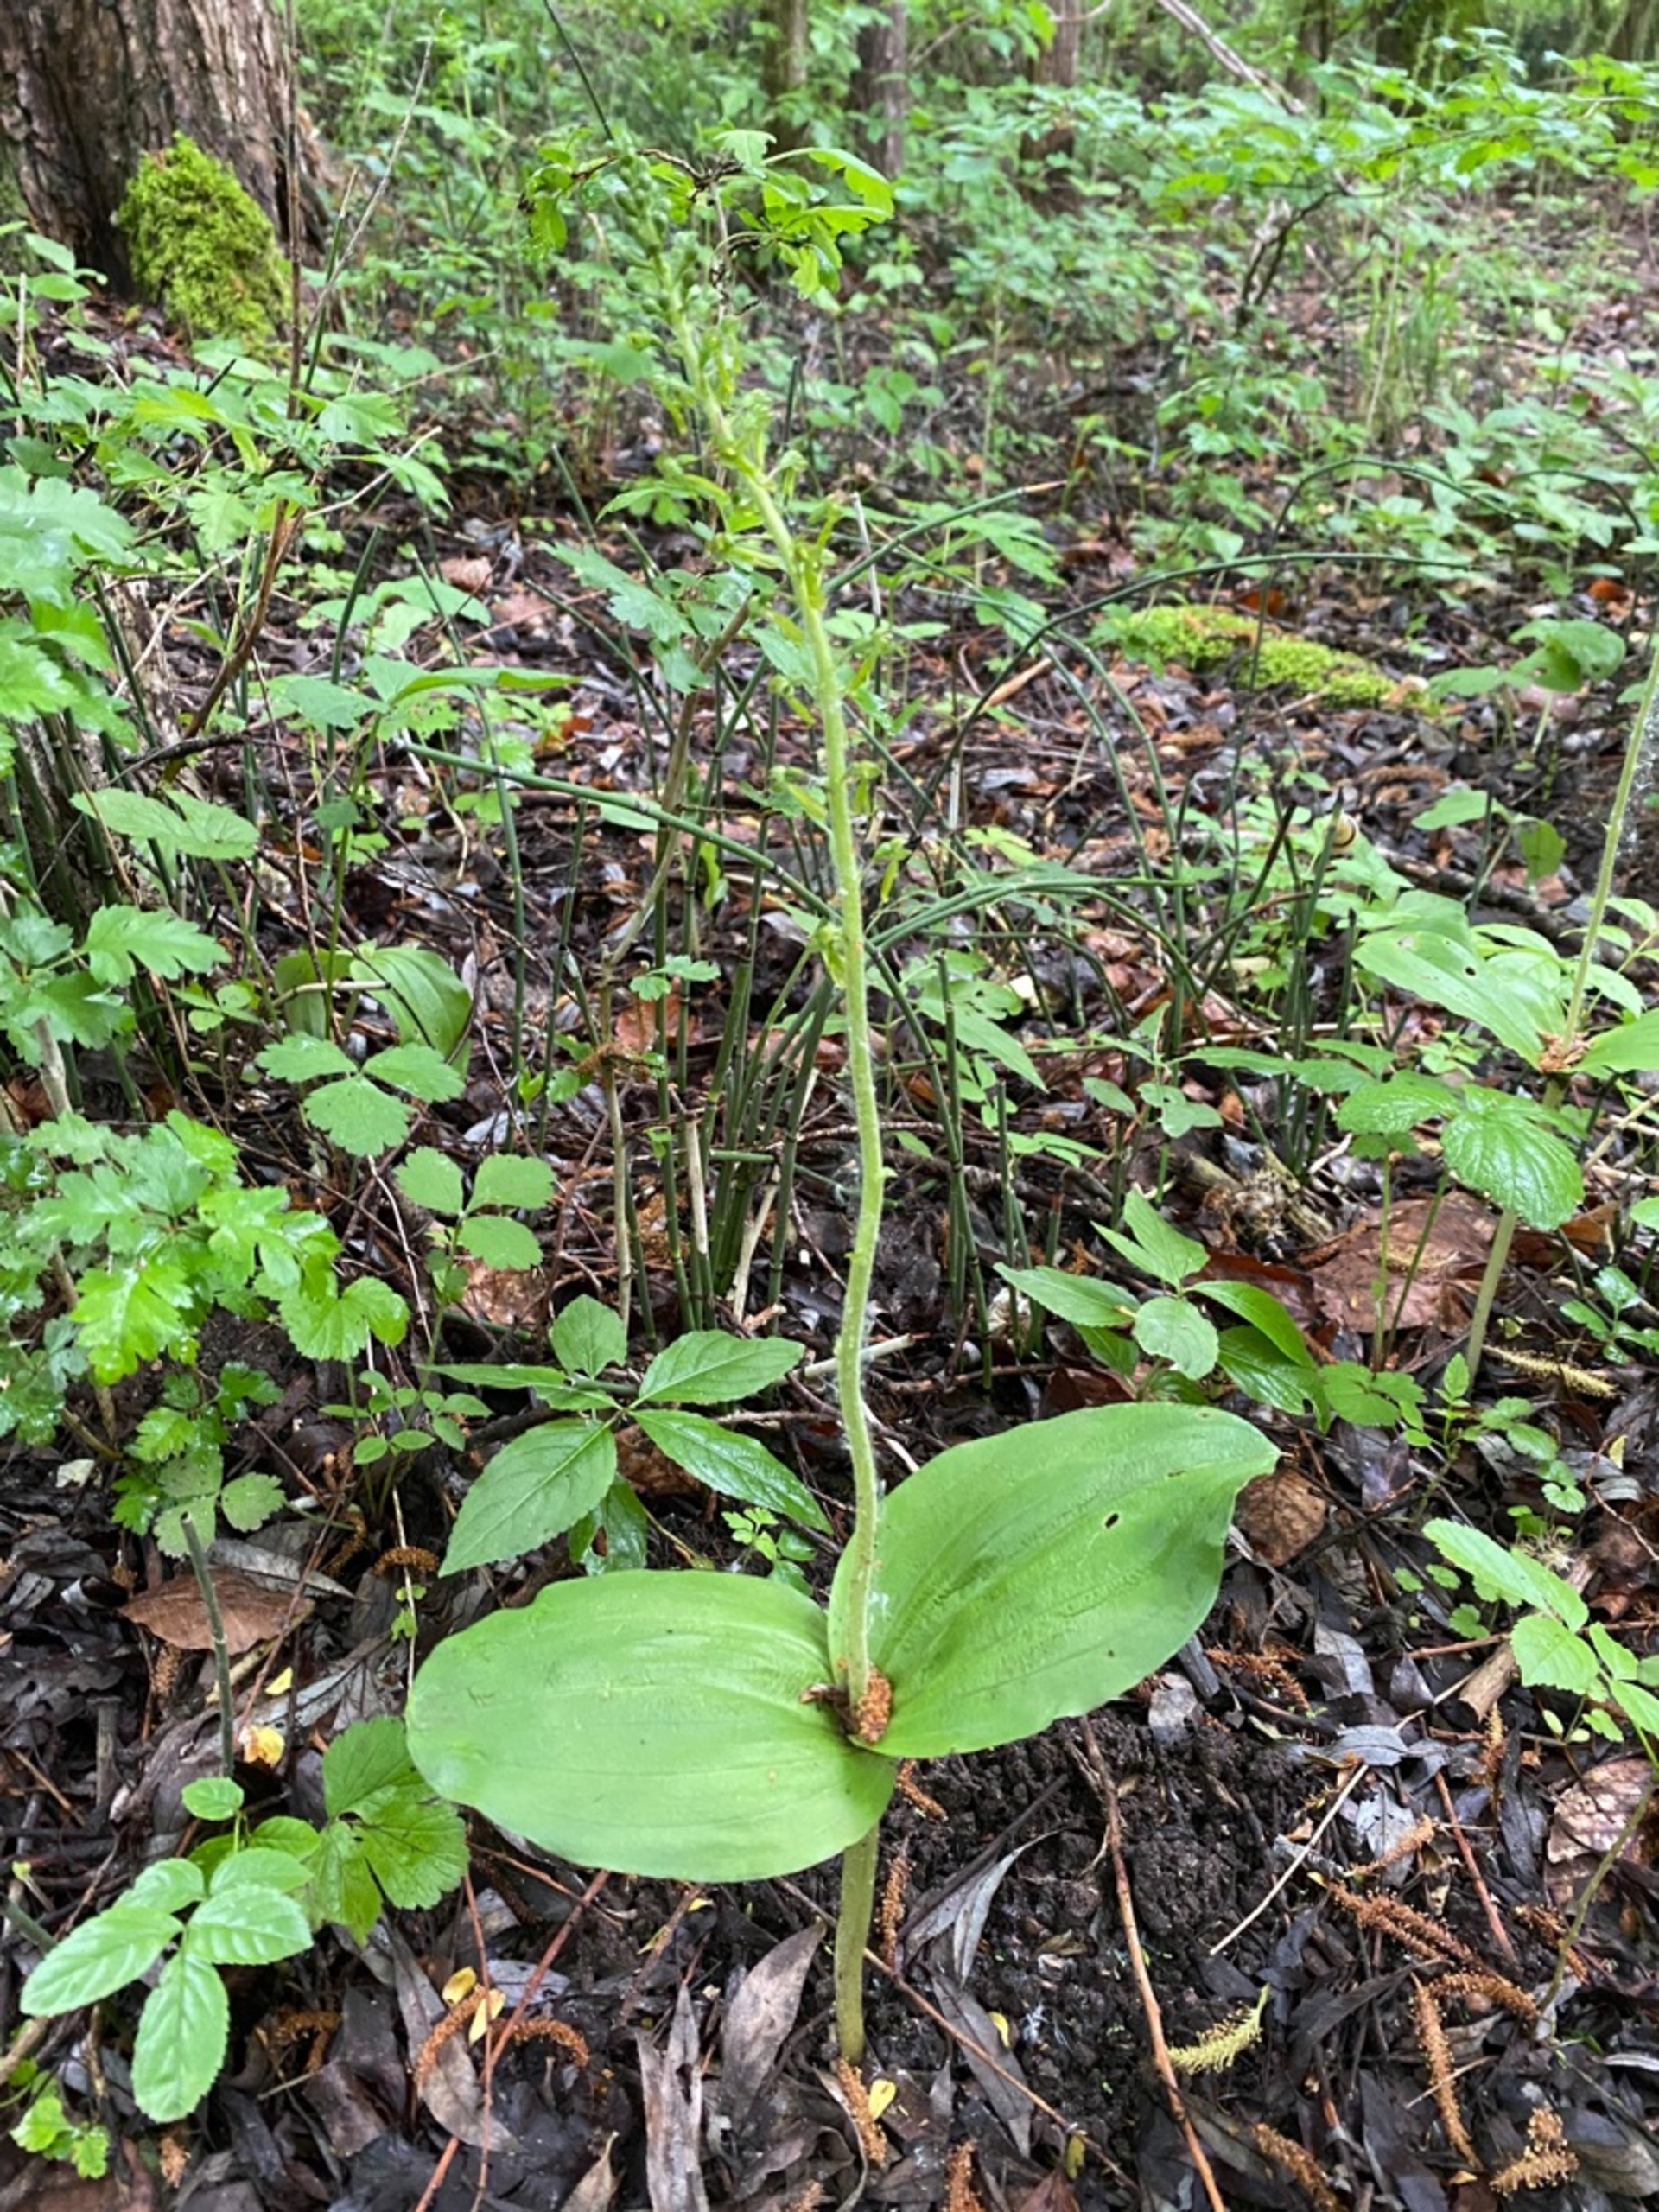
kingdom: Plantae
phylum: Tracheophyta
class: Liliopsida
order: Asparagales
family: Orchidaceae
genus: Neottia
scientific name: Neottia ovata
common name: Ægbladet fliglæbe
